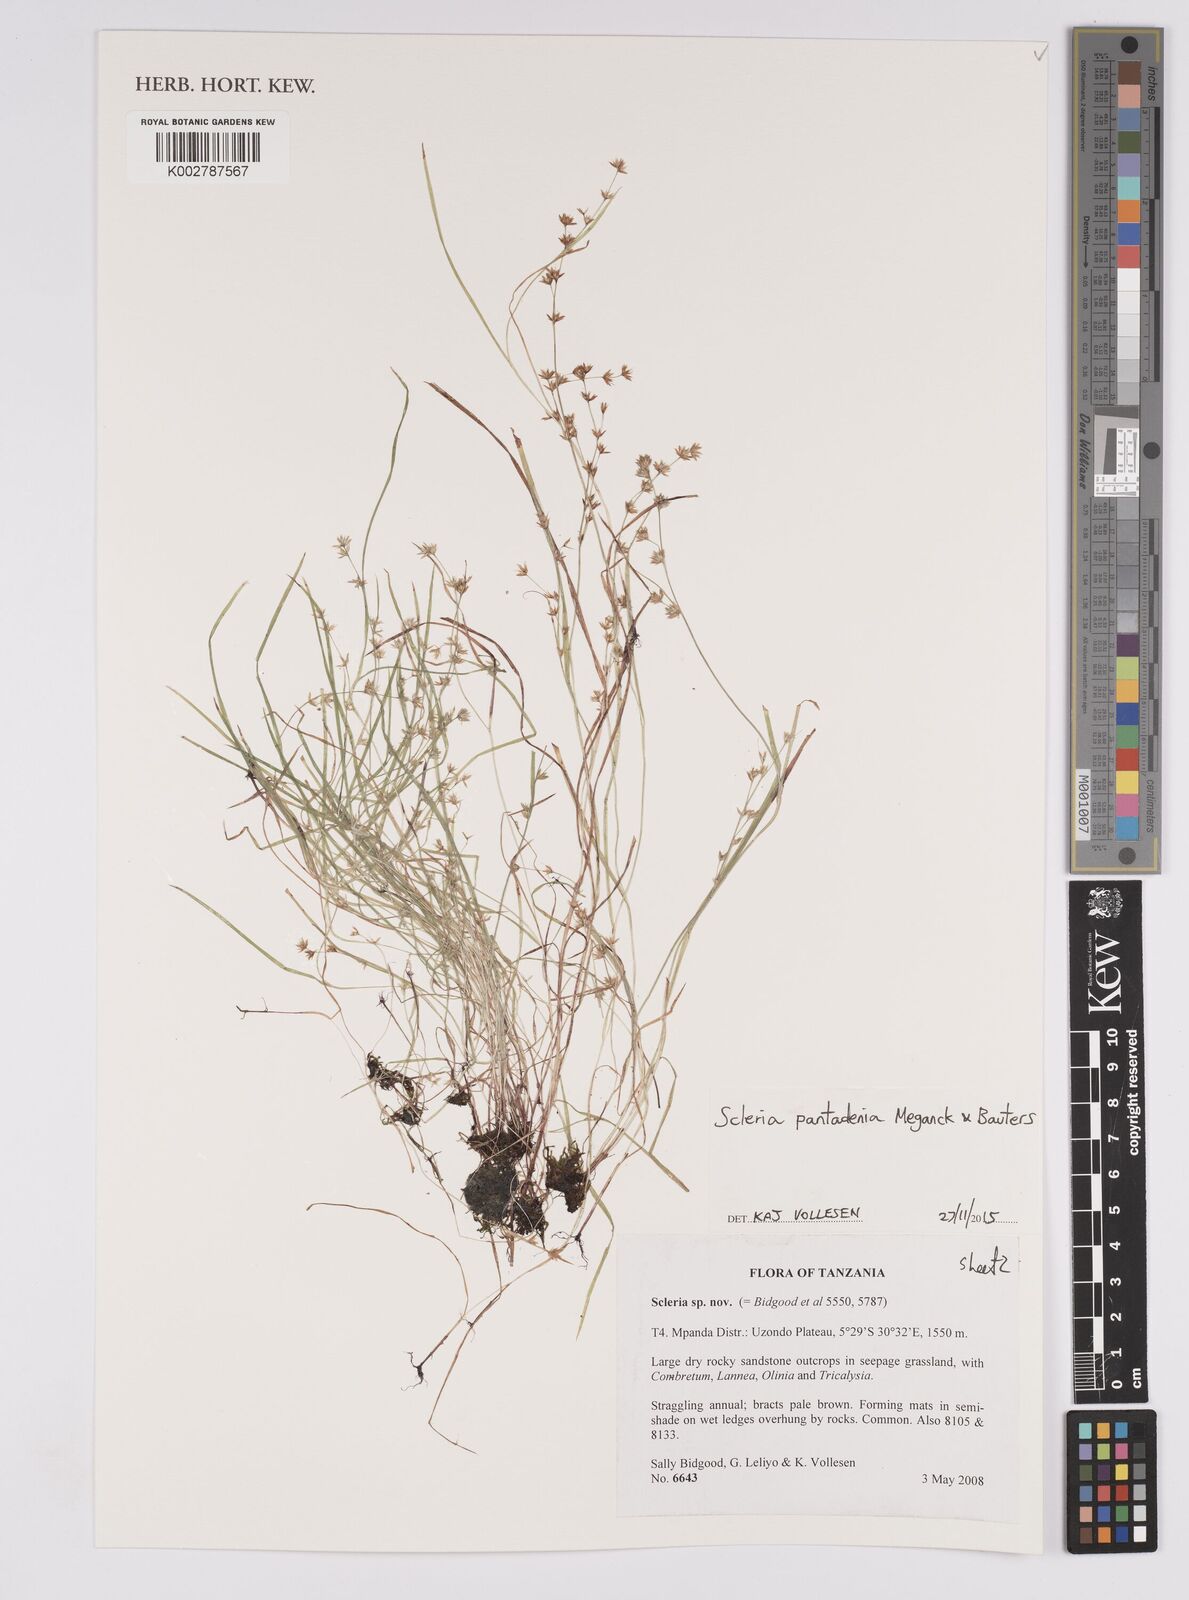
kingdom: Plantae
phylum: Tracheophyta
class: Liliopsida
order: Poales
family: Cyperaceae
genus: Scleria
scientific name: Scleria pantadenia
